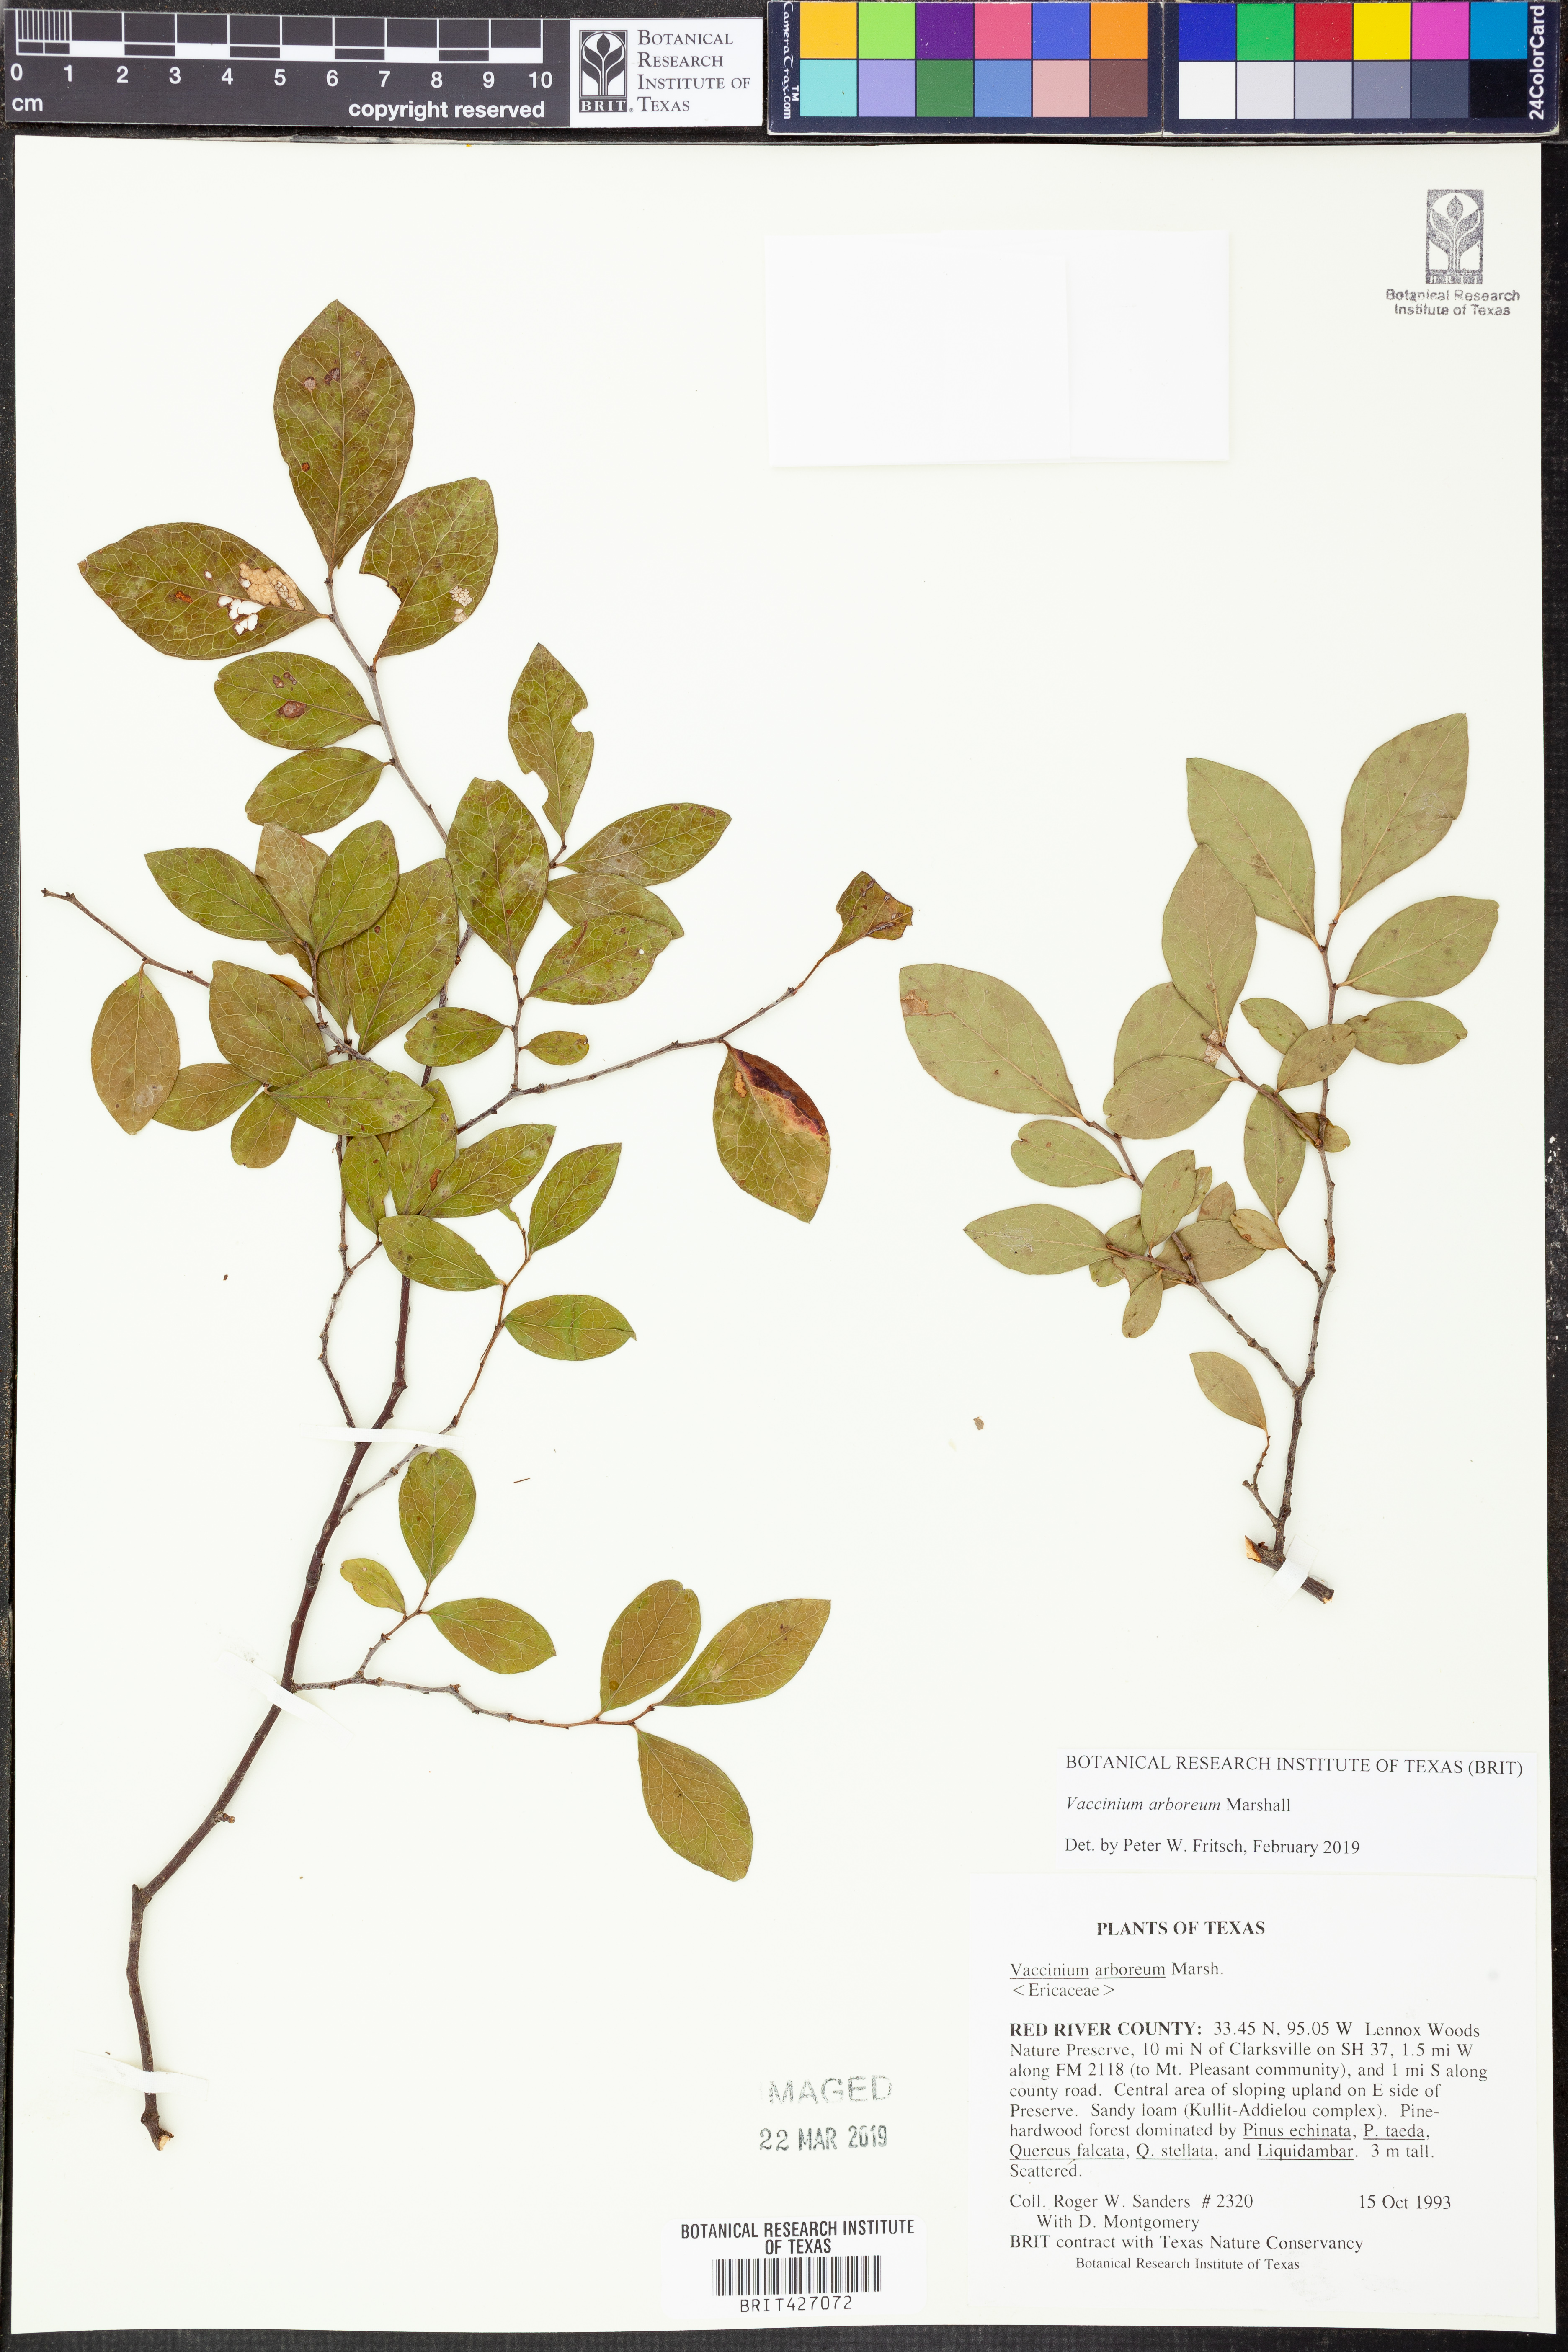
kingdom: Plantae
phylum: Tracheophyta
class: Magnoliopsida
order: Ericales
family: Ericaceae
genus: Vaccinium
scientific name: Vaccinium arboreum
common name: Farkleberry
